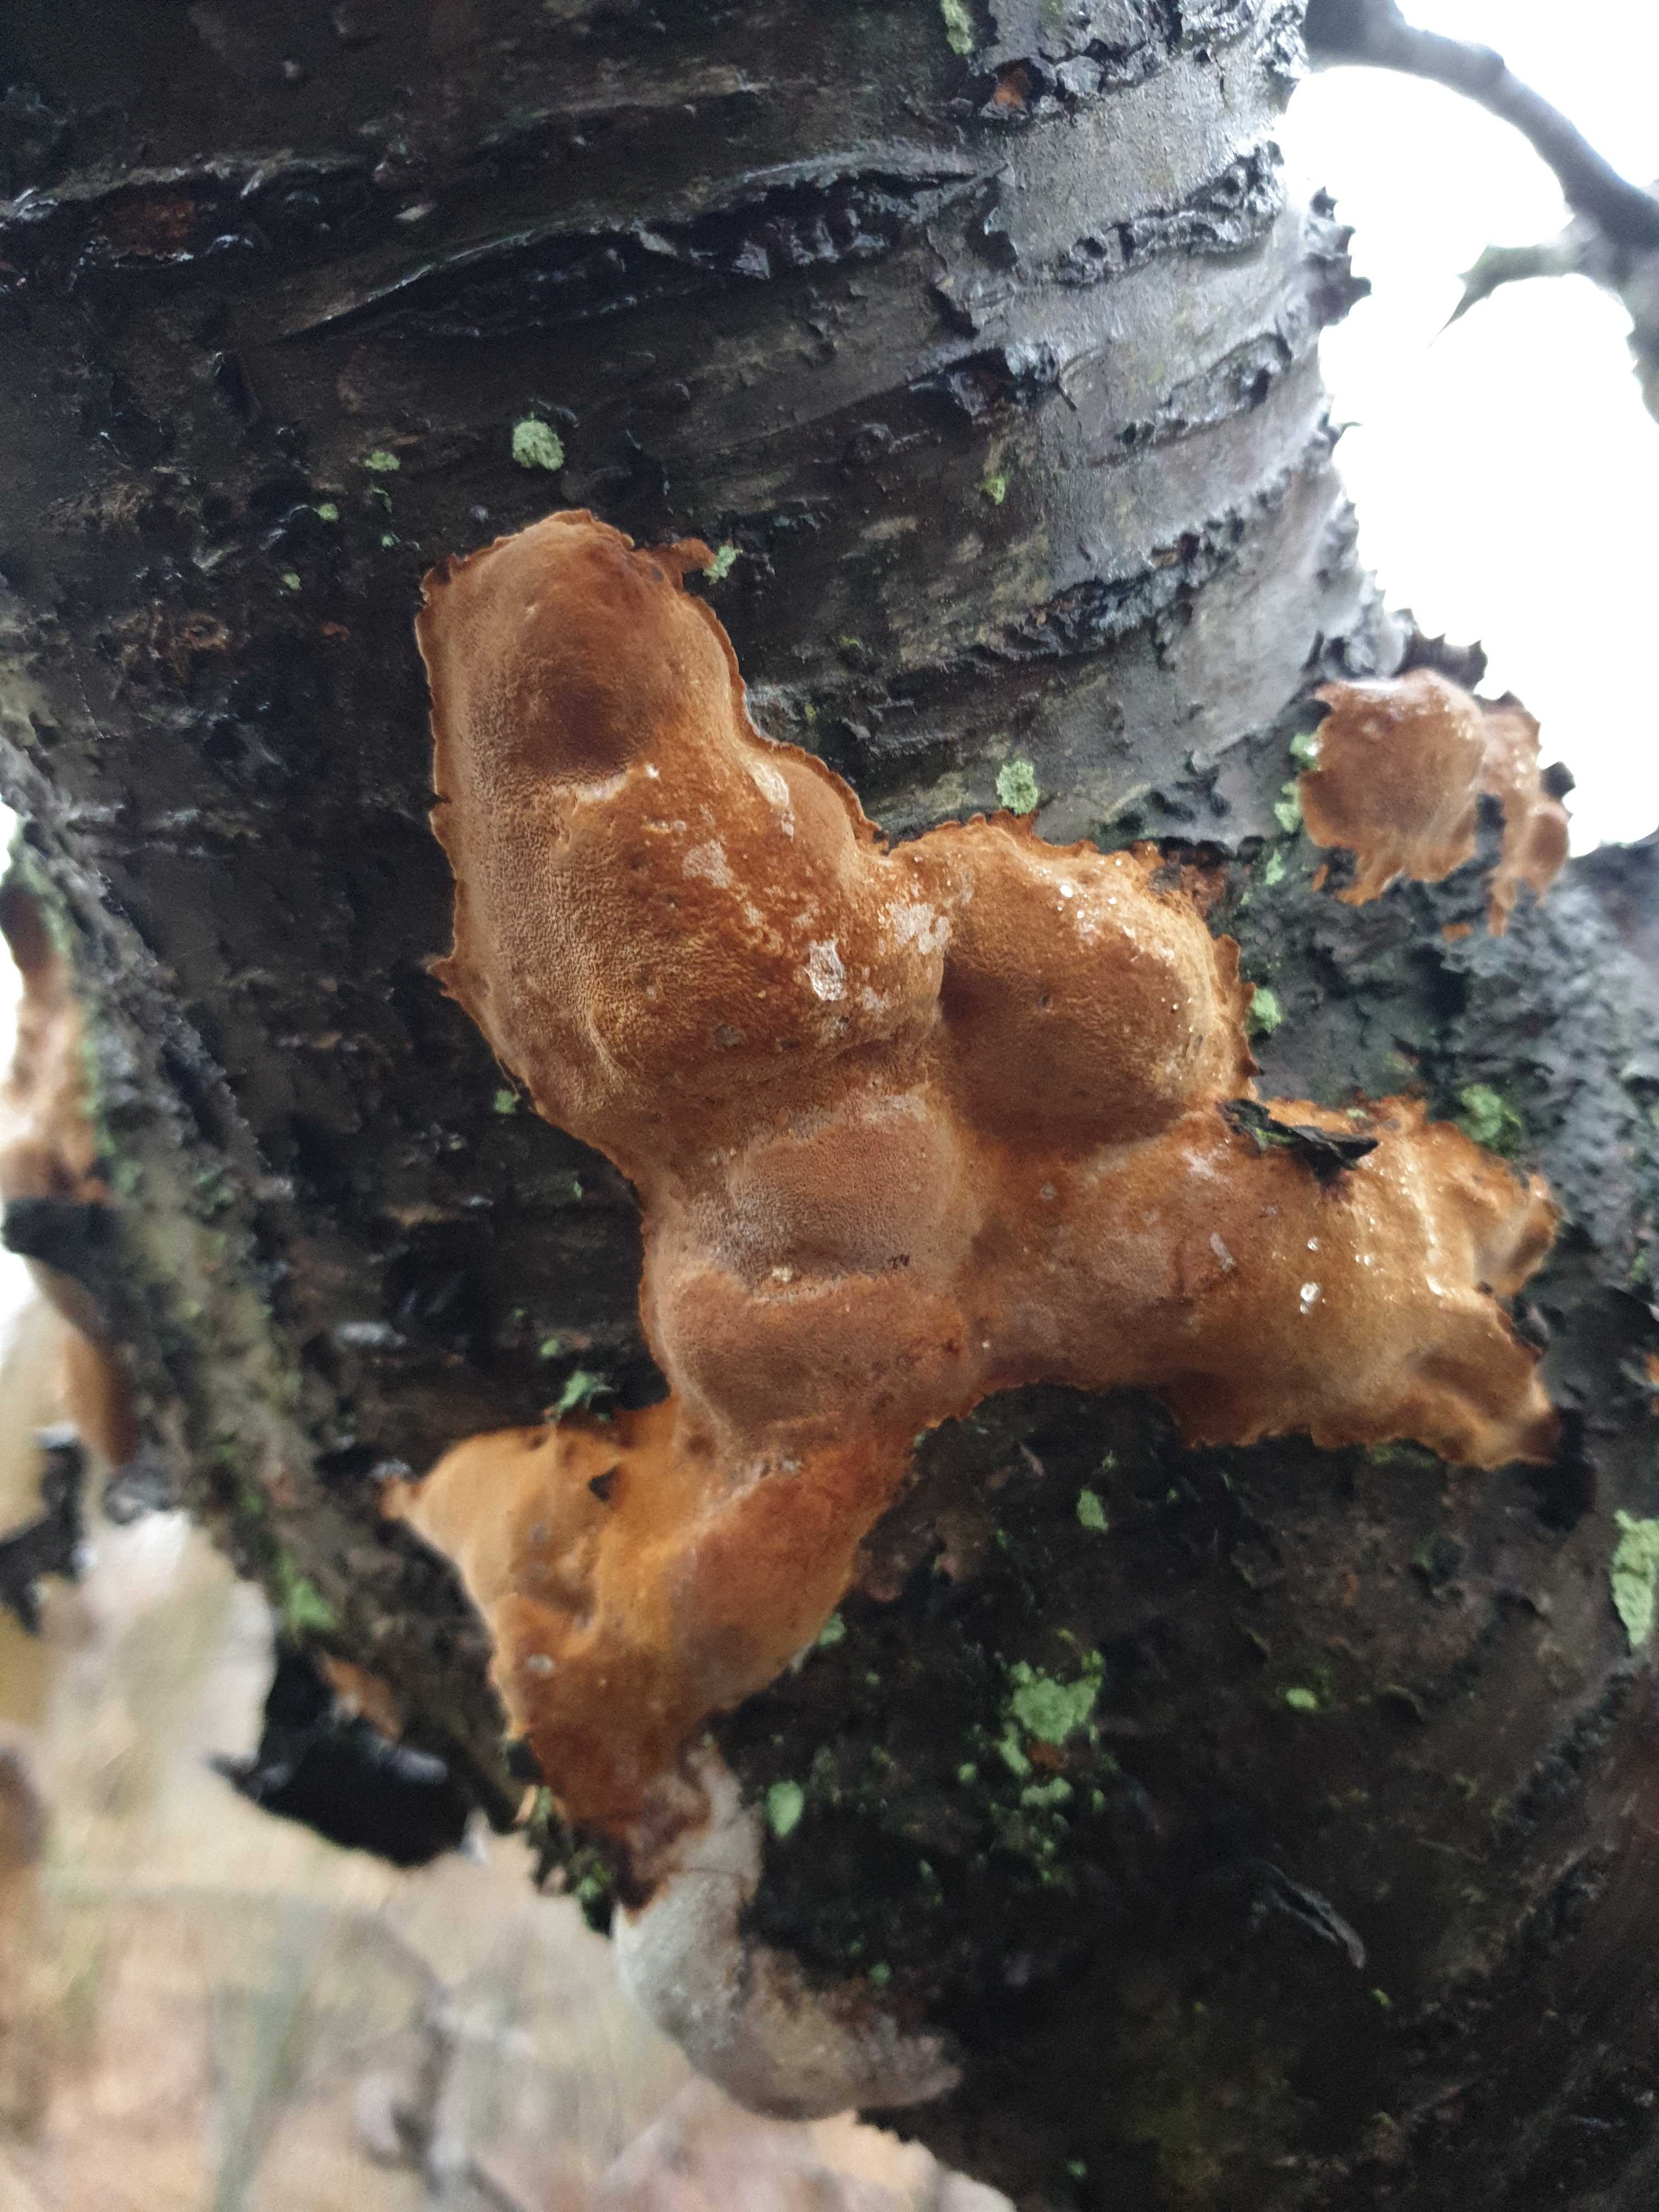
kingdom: Fungi
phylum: Basidiomycota
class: Agaricomycetes
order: Hymenochaetales
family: Hymenochaetaceae
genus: Phellinus
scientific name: Phellinus pomaceus
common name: blomme-ildporesvamp
